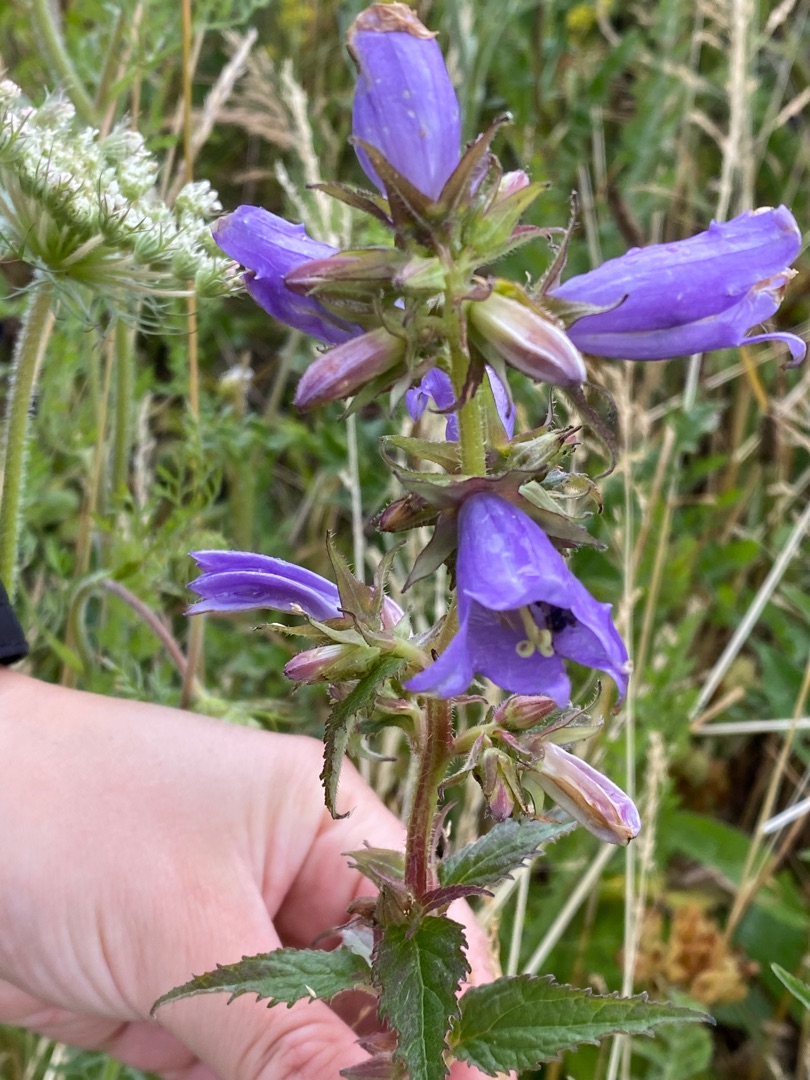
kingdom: Plantae
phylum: Tracheophyta
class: Magnoliopsida
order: Asterales
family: Campanulaceae
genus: Campanula
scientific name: Campanula trachelium
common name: Nælde-klokke
